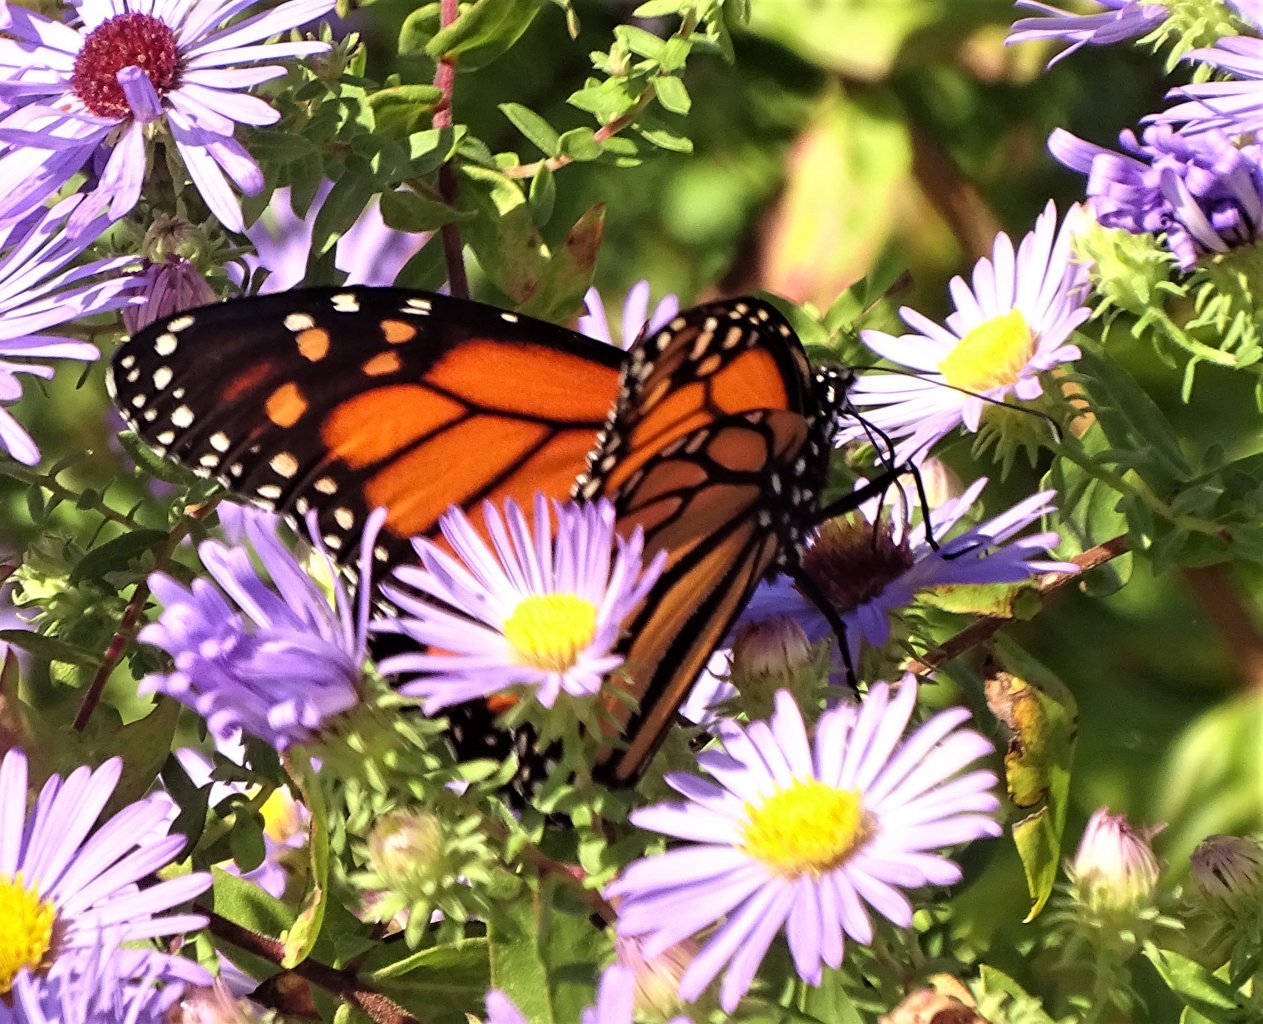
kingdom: Animalia
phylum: Arthropoda
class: Insecta
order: Lepidoptera
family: Nymphalidae
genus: Danaus
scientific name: Danaus plexippus
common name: Monarch
